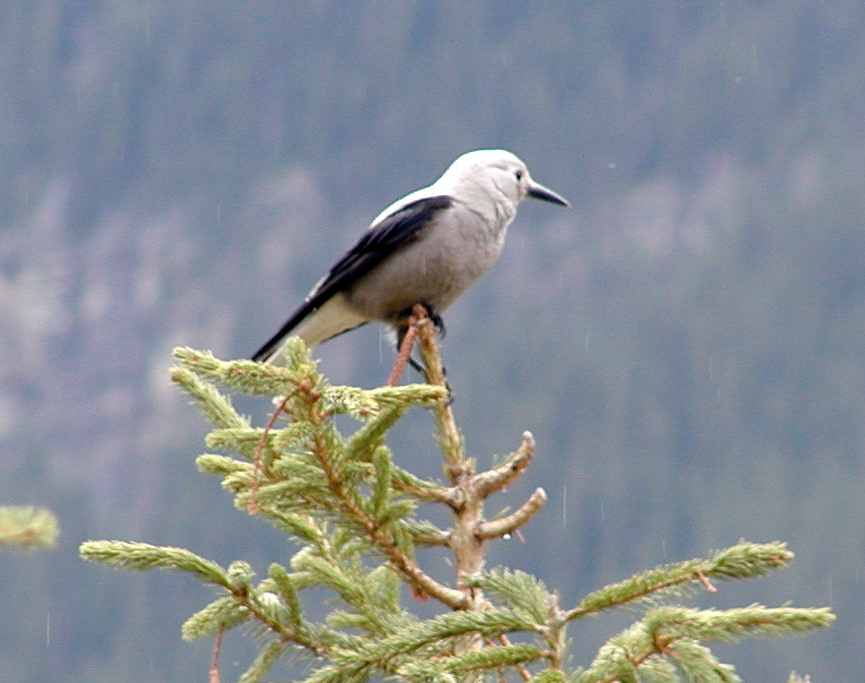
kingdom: Animalia
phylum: Chordata
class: Aves
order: Passeriformes
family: Corvidae
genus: Nucifraga
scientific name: Nucifraga columbiana
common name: Clark's nutcracker
